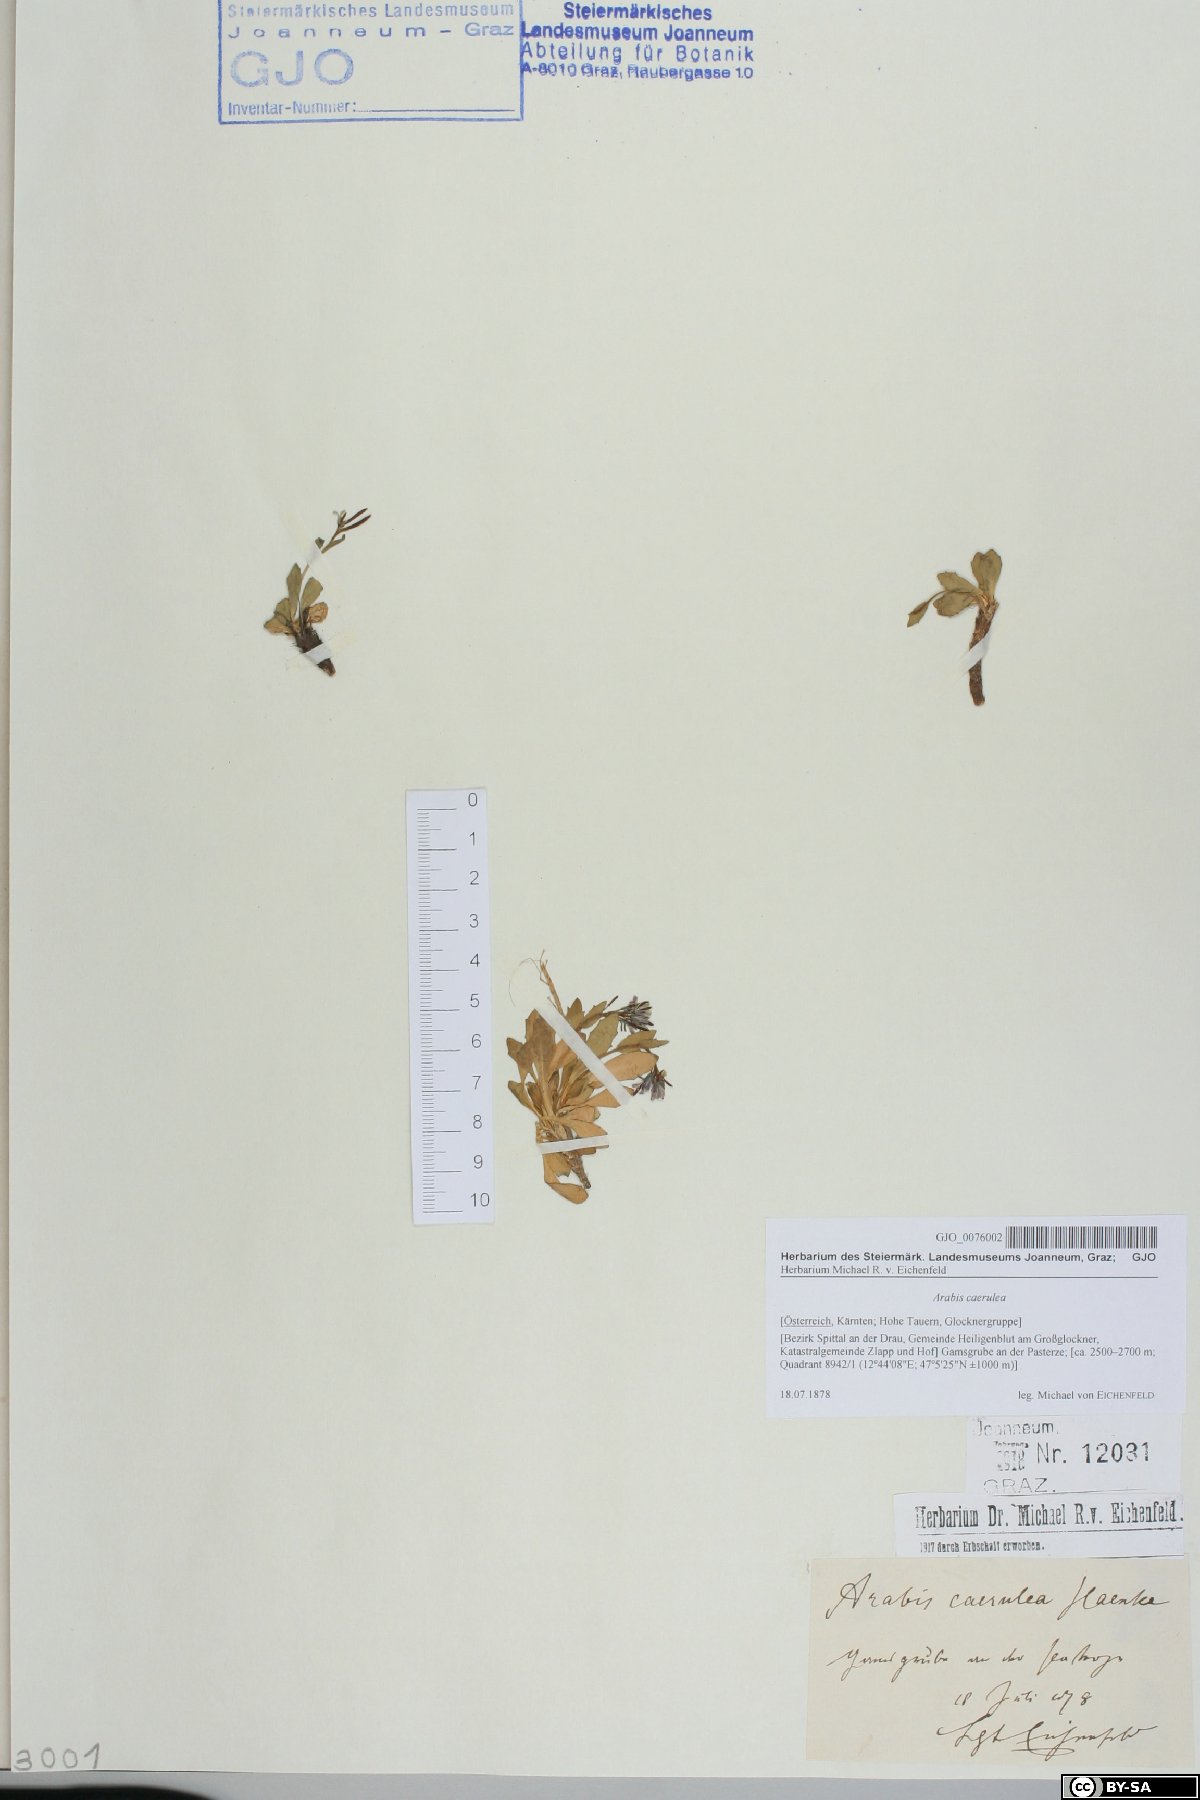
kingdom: Plantae
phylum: Tracheophyta
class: Magnoliopsida
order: Brassicales
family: Brassicaceae
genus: Arabis
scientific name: Arabis caerulea
